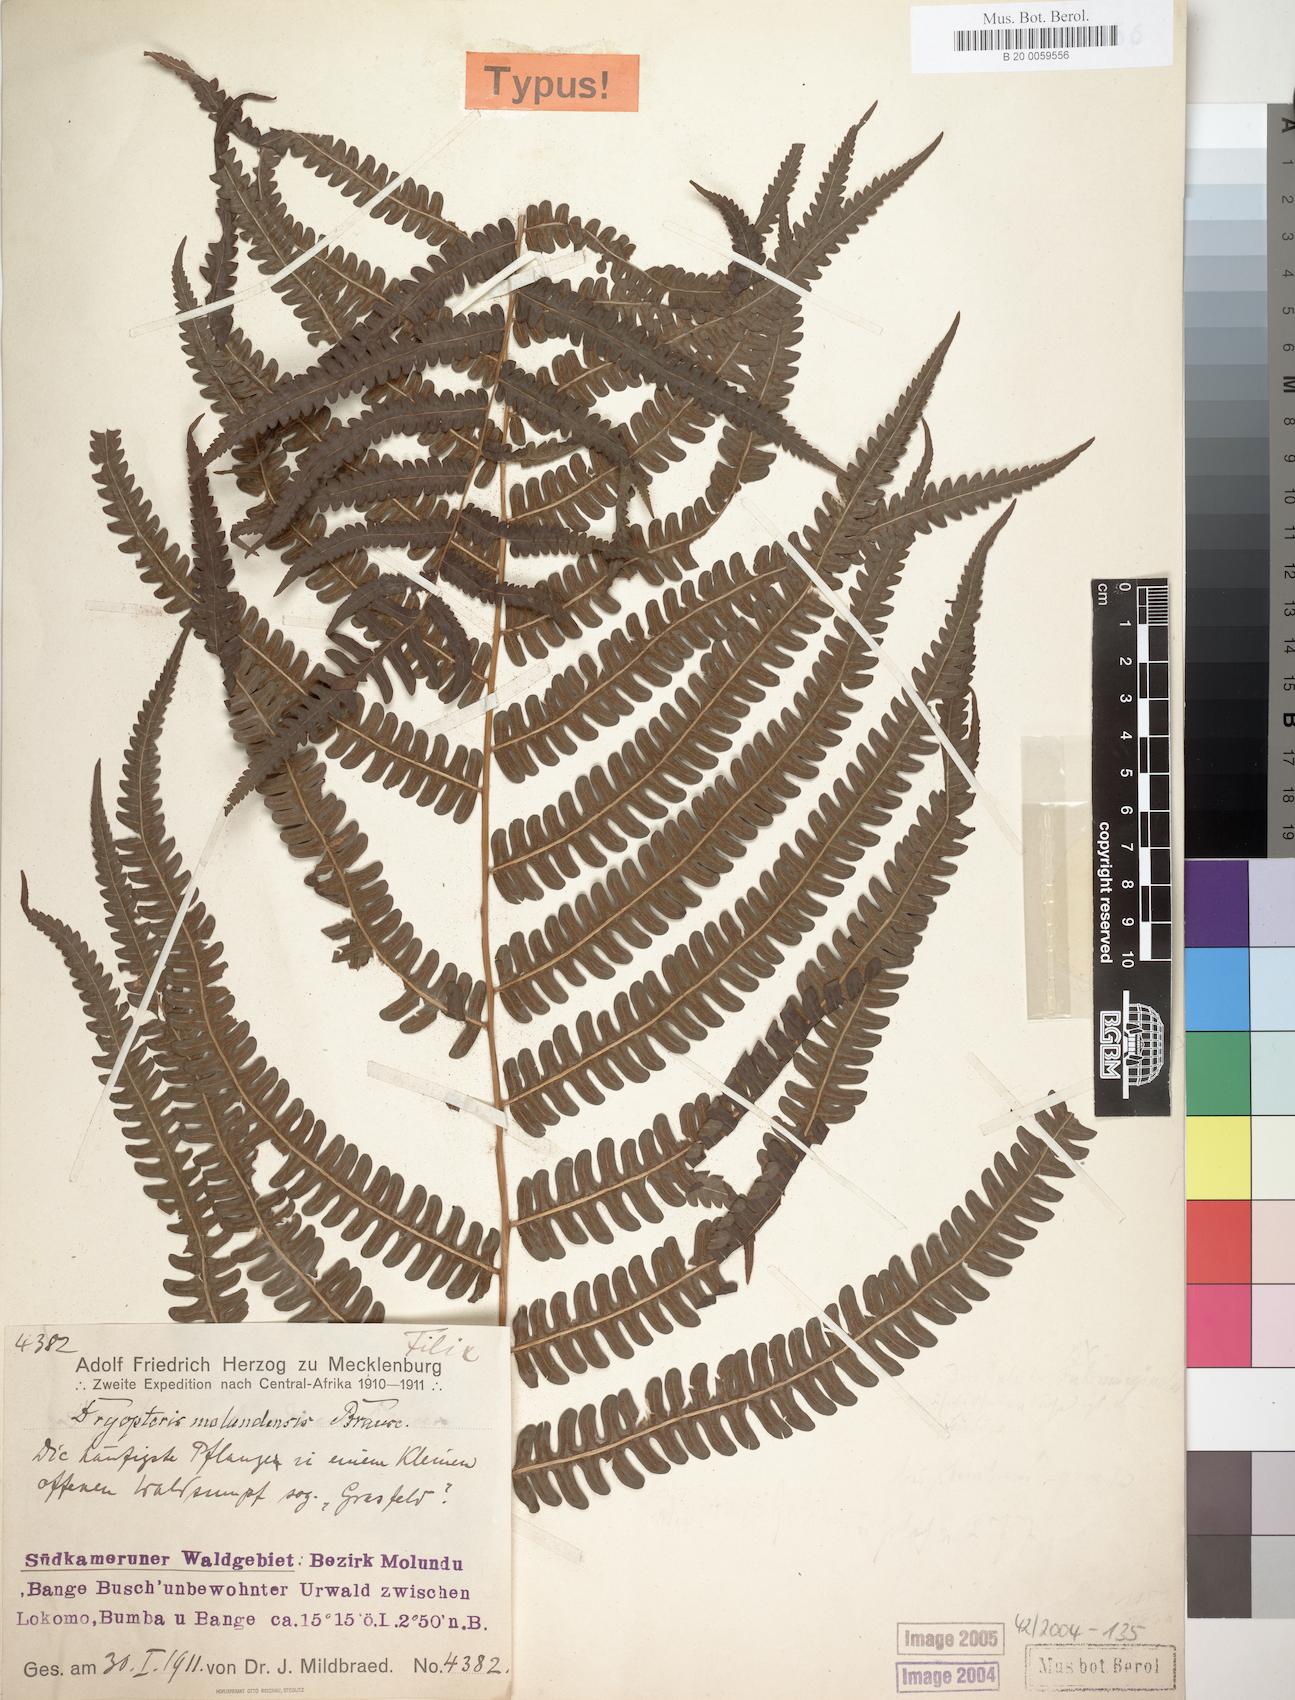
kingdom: Plantae
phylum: Tracheophyta
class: Polypodiopsida
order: Polypodiales
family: Thelypteridaceae
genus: Cyclosorus
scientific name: Cyclosorus striatus
